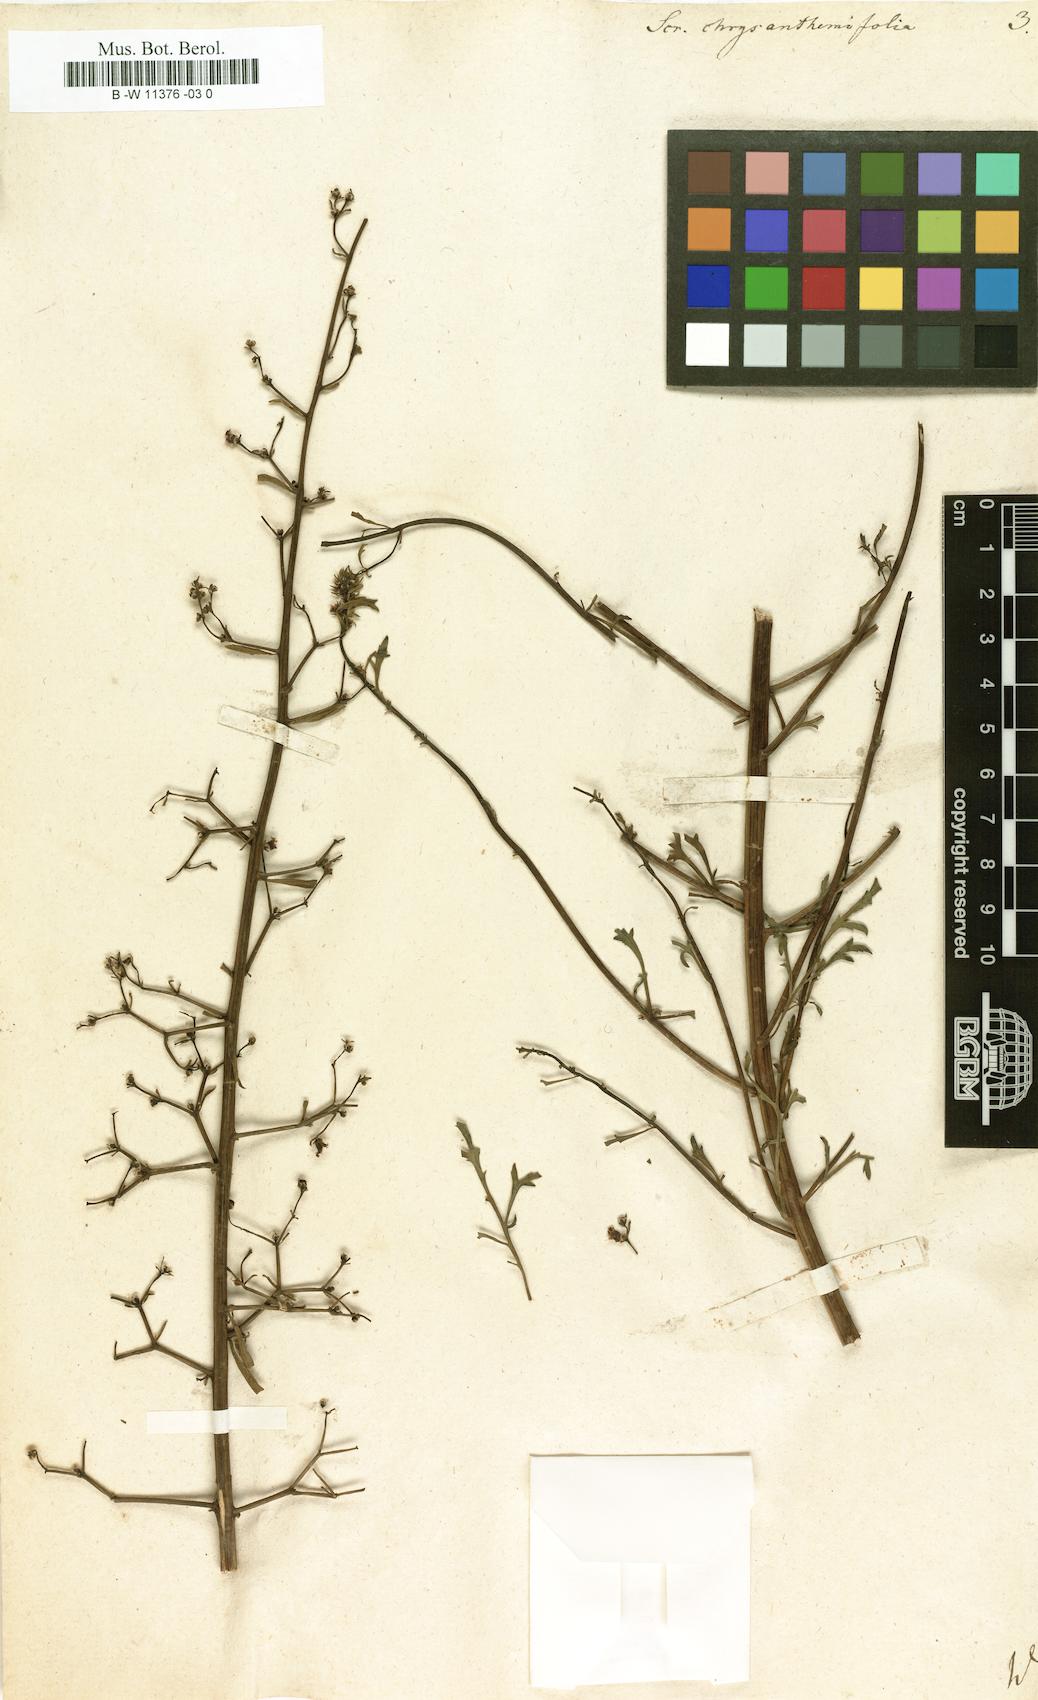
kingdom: Plantae
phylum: Tracheophyta
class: Magnoliopsida
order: Lamiales
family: Scrophulariaceae
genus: Scrophularia
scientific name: Scrophularia
